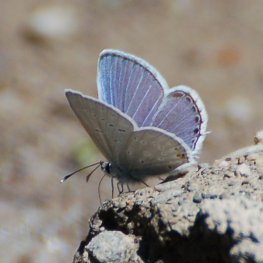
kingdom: Animalia
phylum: Arthropoda
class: Insecta
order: Lepidoptera
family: Lycaenidae
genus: Elkalyce
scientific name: Elkalyce amyntula
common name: Western Tailed-Blue
